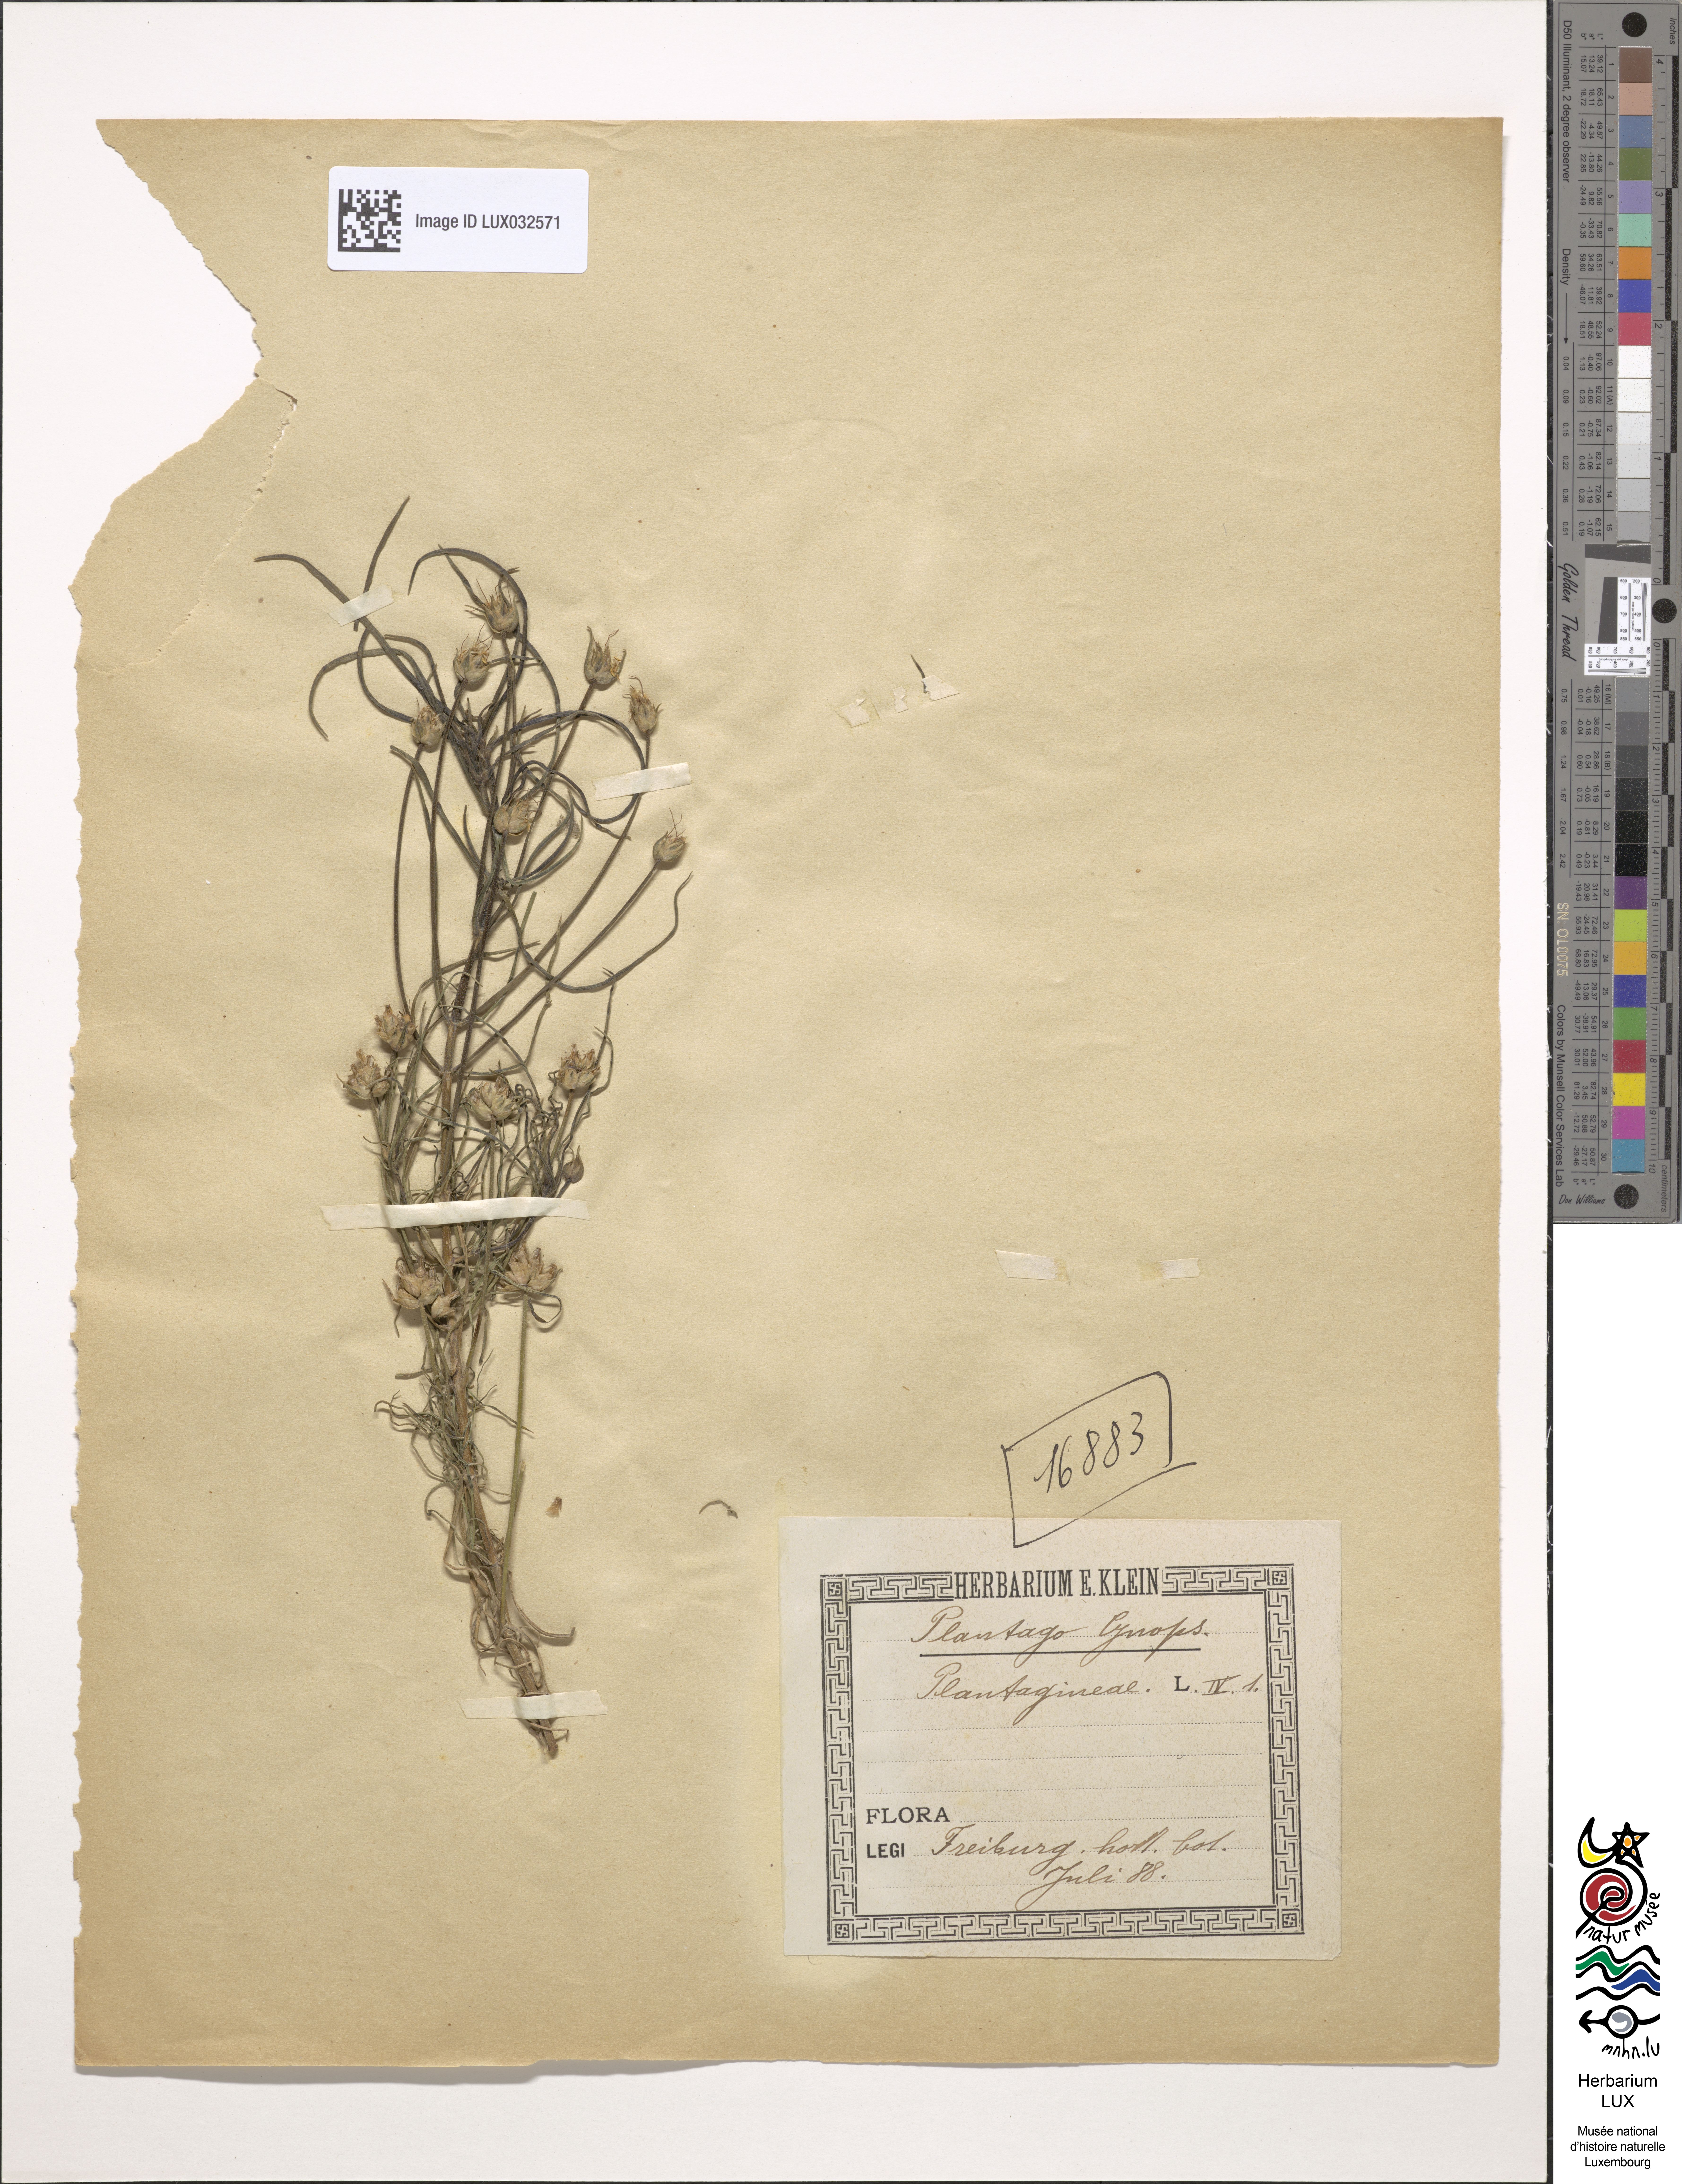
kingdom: Plantae
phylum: Tracheophyta
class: Magnoliopsida
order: Lamiales
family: Plantaginaceae
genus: Plantago
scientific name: Plantago sempervirens
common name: Shrubby plantain
